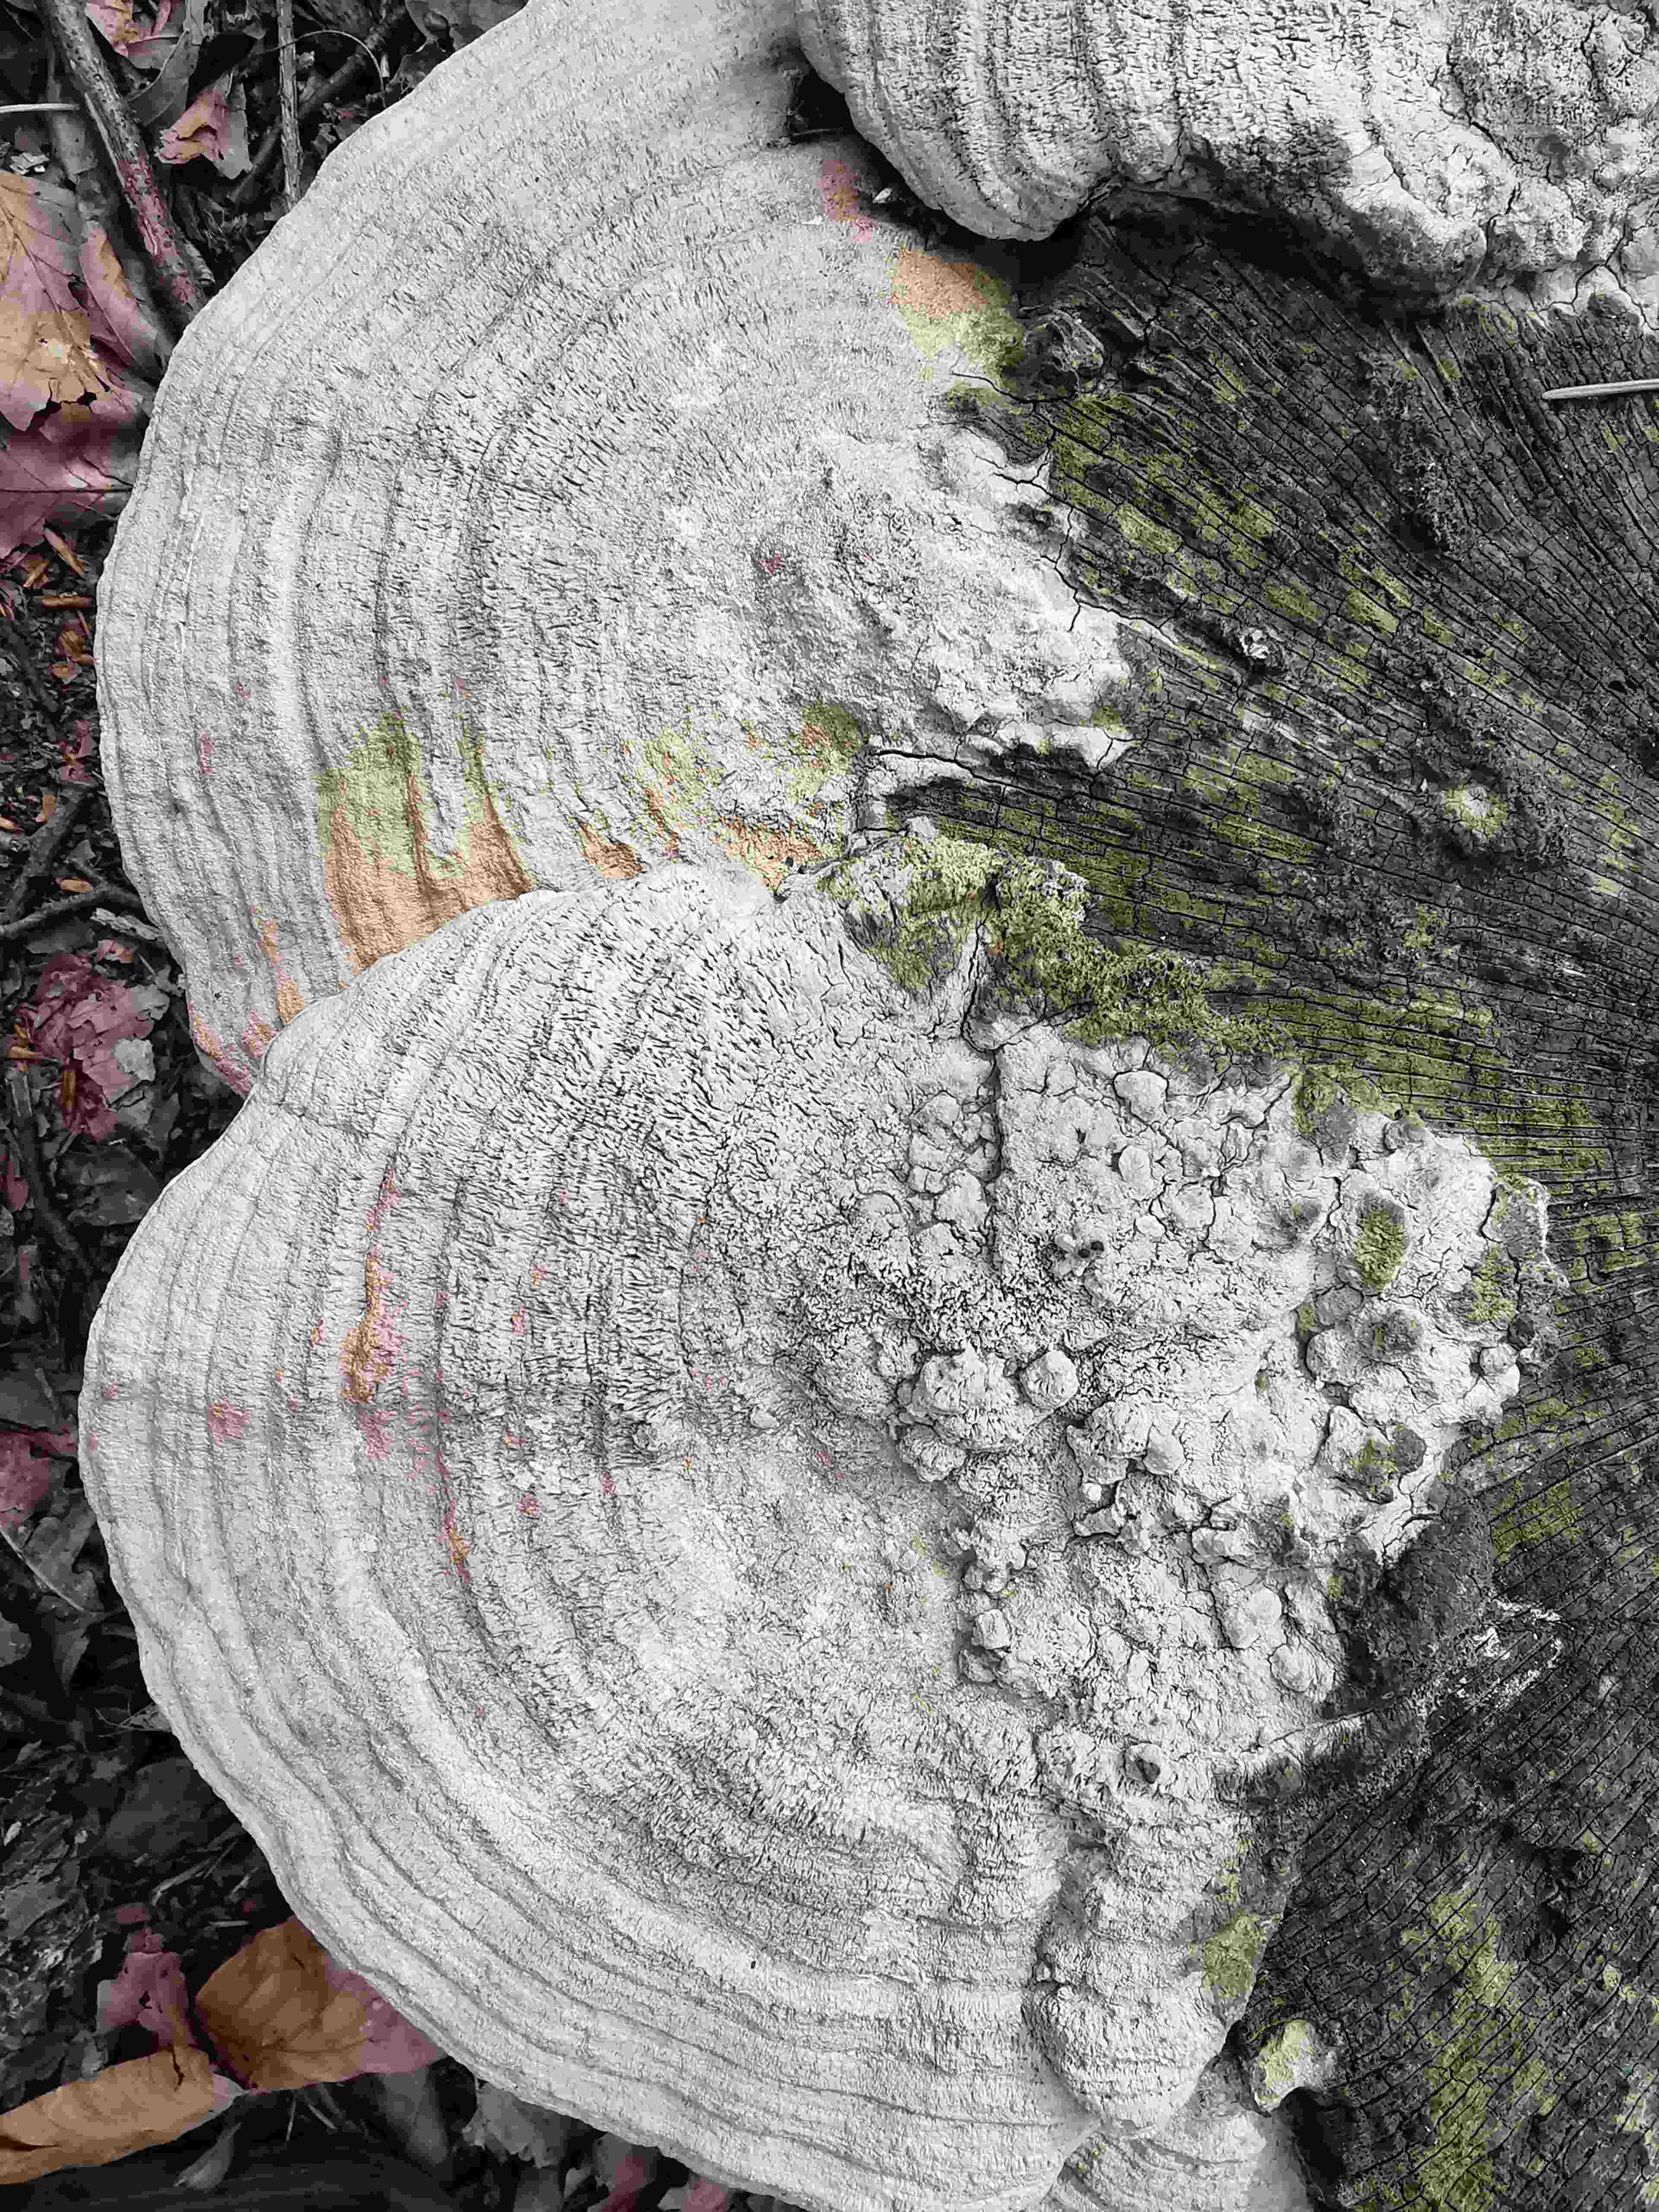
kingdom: Fungi
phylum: Basidiomycota
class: Agaricomycetes
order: Polyporales
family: Fomitopsidaceae
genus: Daedalea
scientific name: Daedalea quercina
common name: ege-labyrintsvamp
